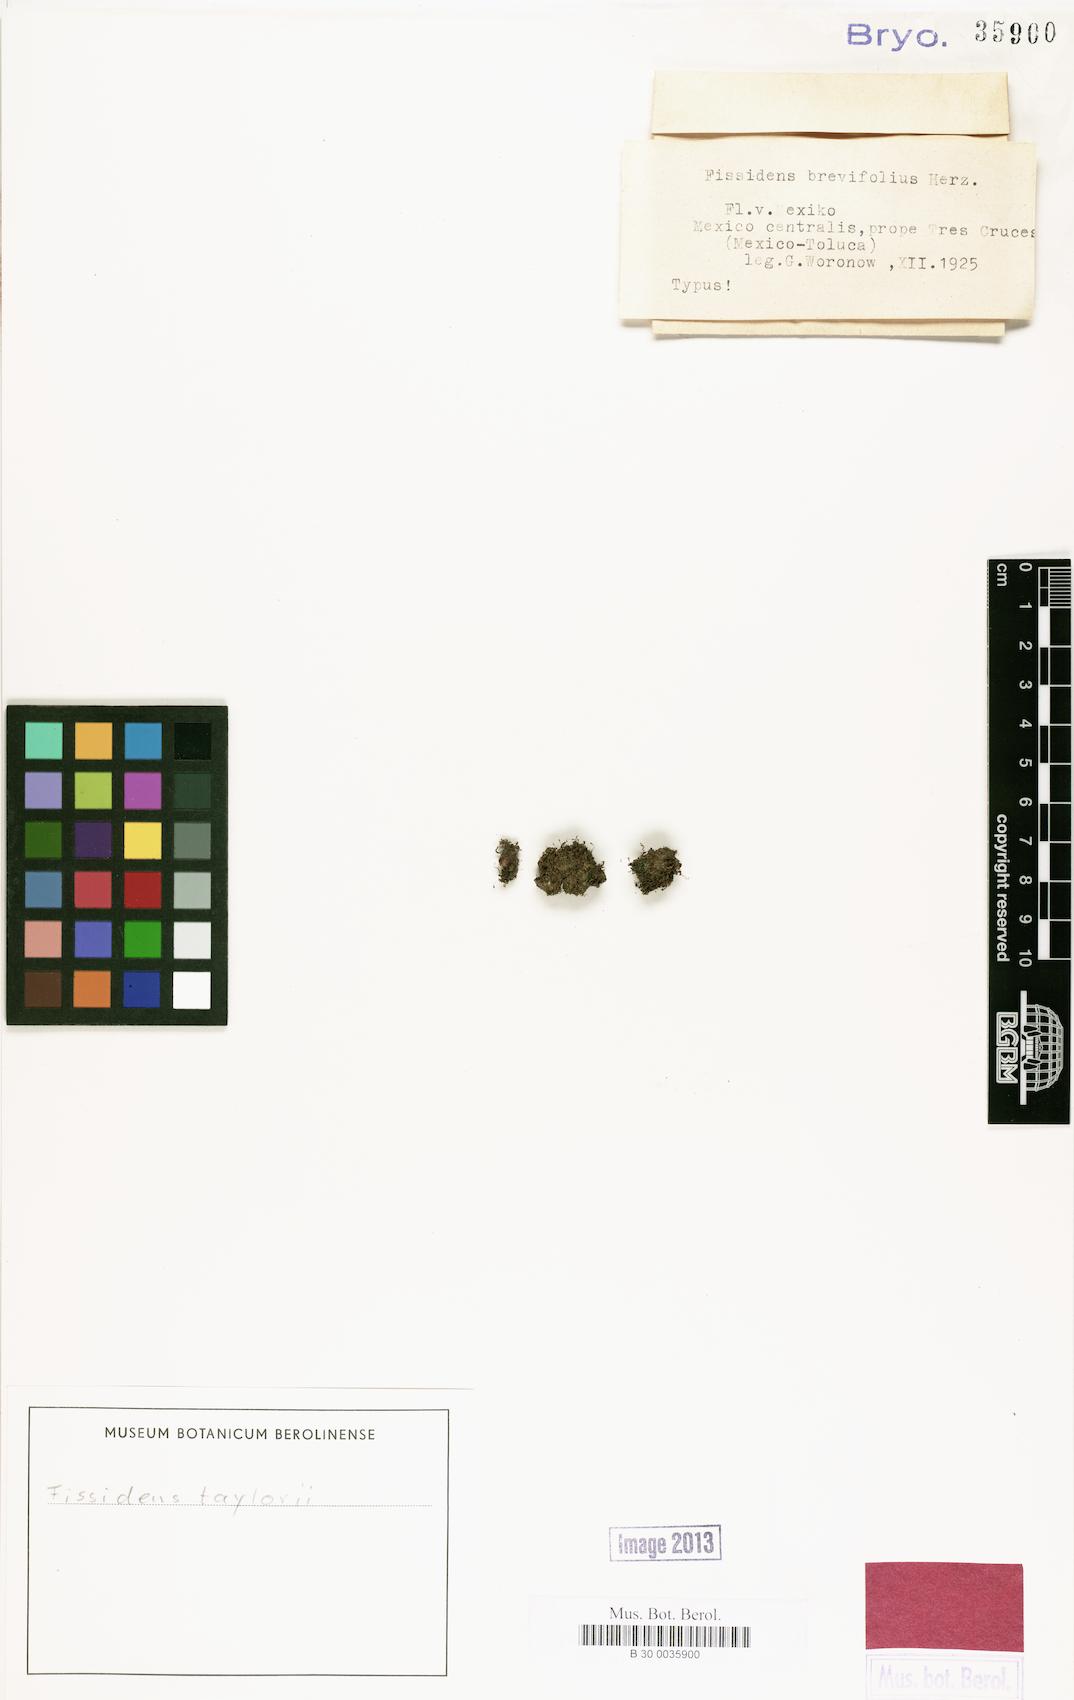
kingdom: Plantae
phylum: Bryophyta
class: Bryopsida
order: Dicranales
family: Fissidentaceae
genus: Fissidens
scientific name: Fissidens taylorii
